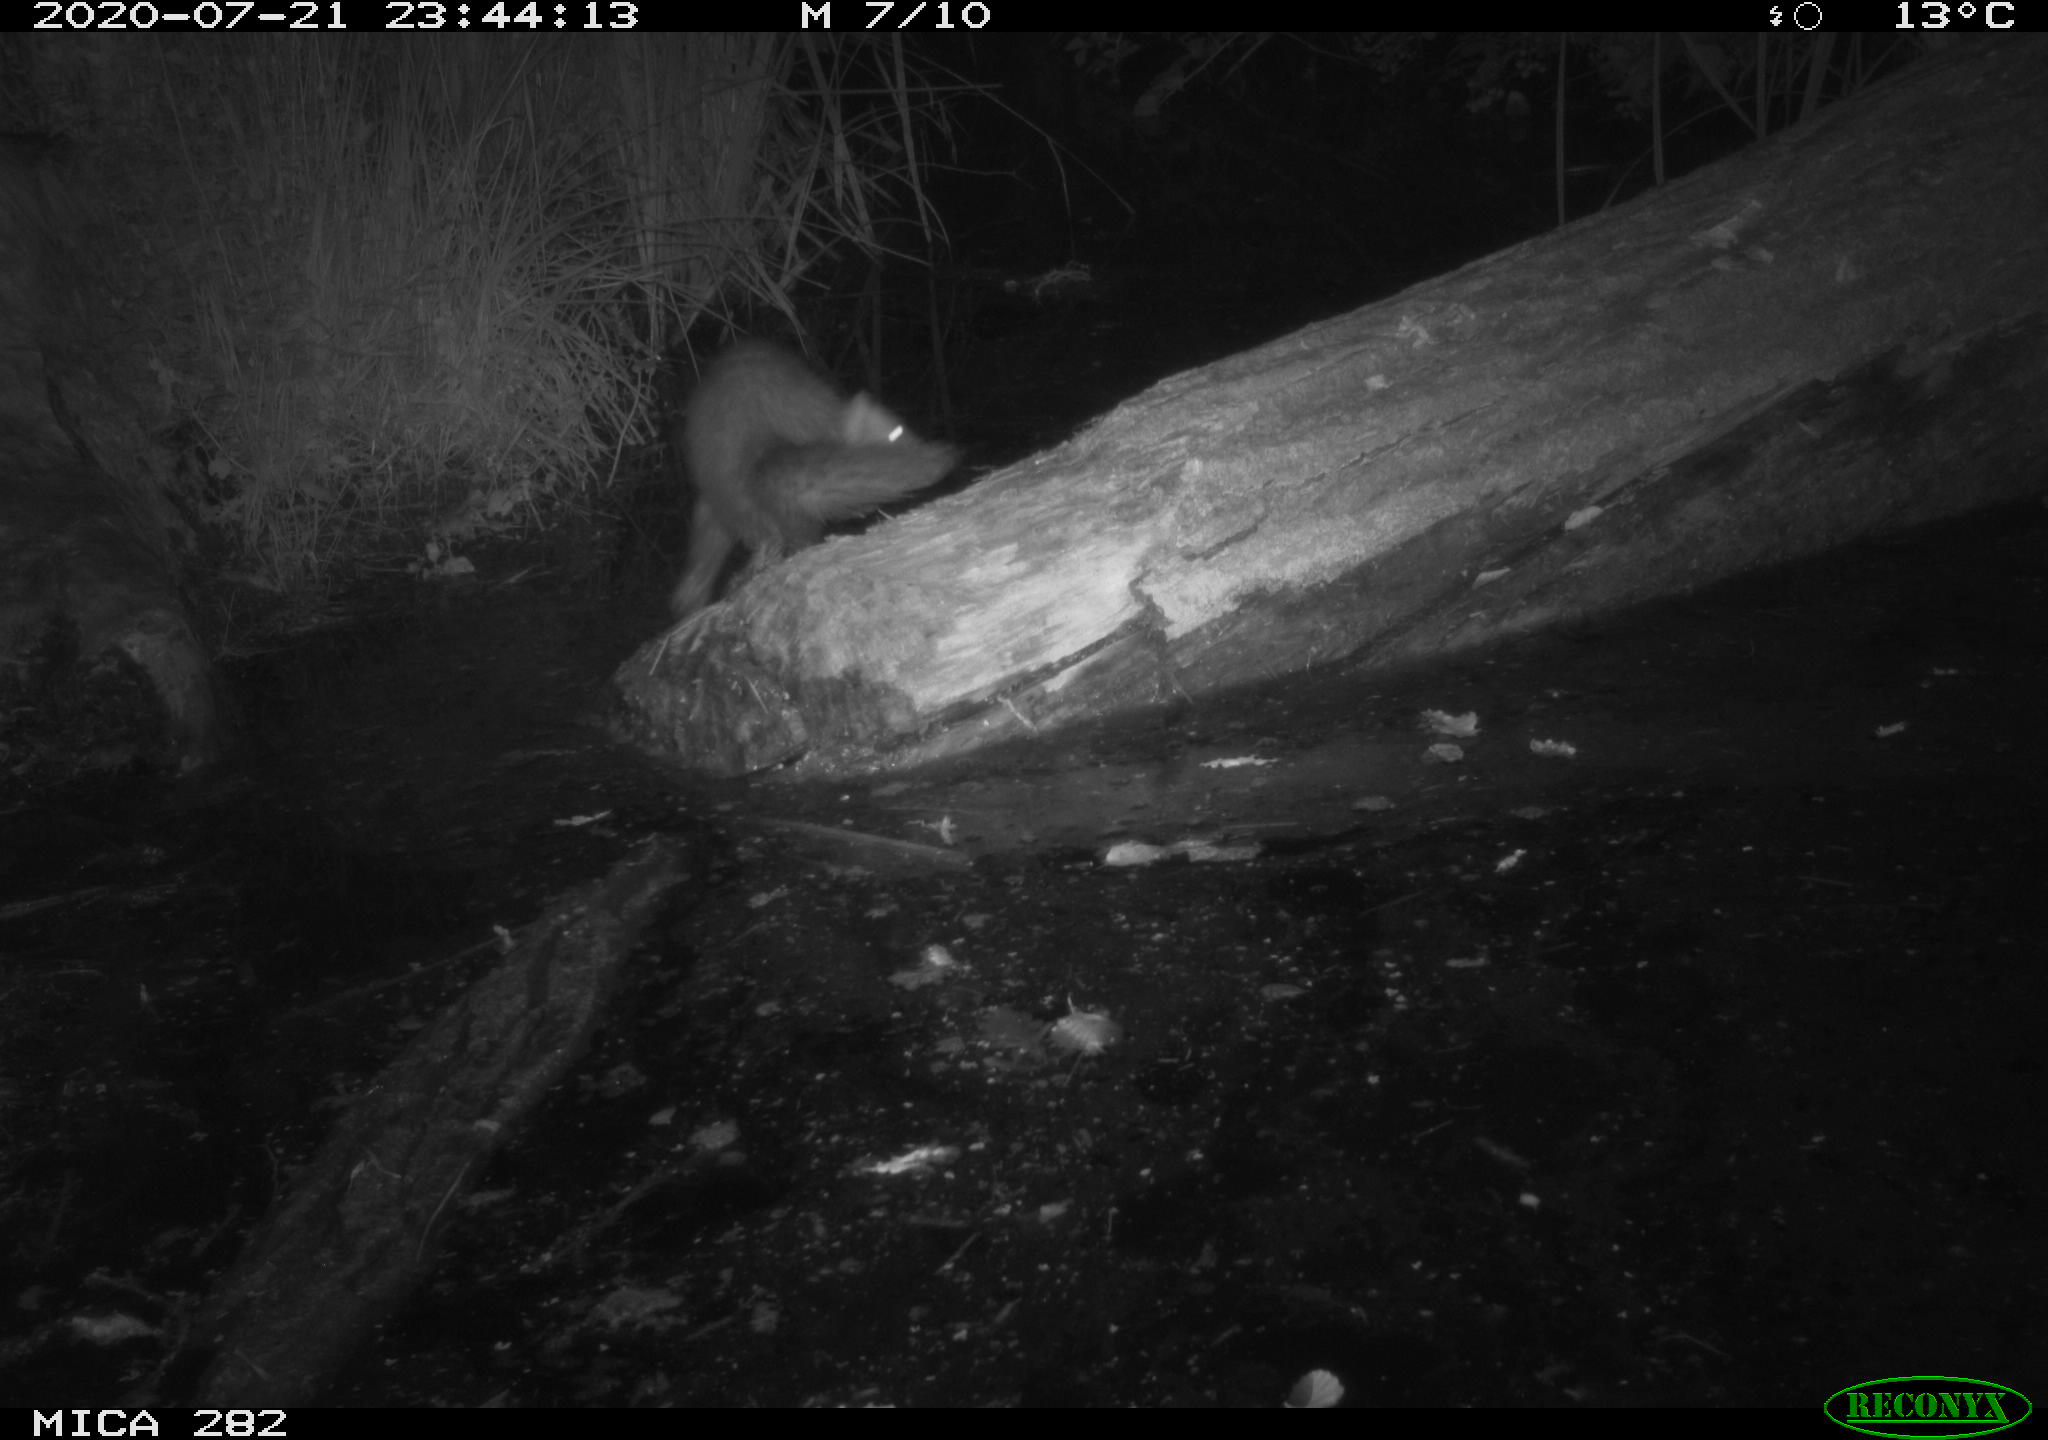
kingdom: Animalia
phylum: Chordata
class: Mammalia
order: Carnivora
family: Mustelidae
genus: Martes
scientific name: Martes foina
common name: Beech marten
